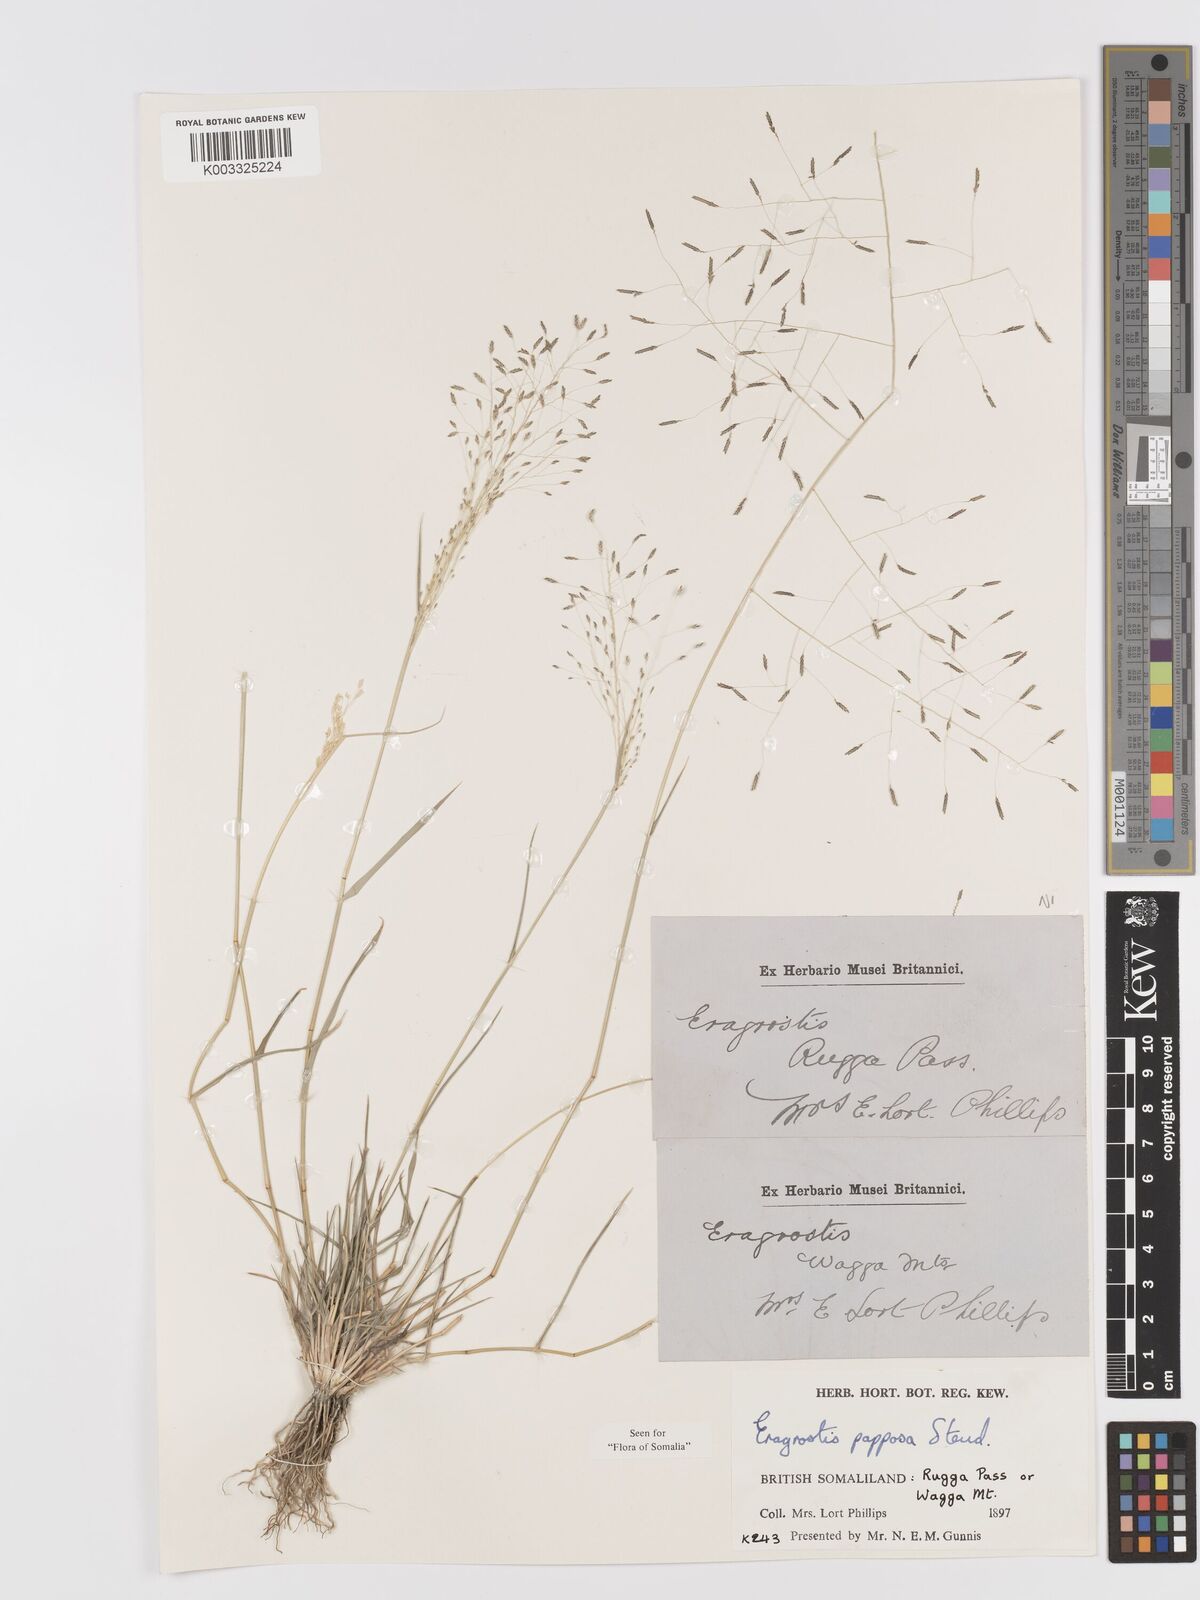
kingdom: Plantae
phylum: Tracheophyta
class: Liliopsida
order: Poales
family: Poaceae
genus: Eragrostis
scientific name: Eragrostis papposa
